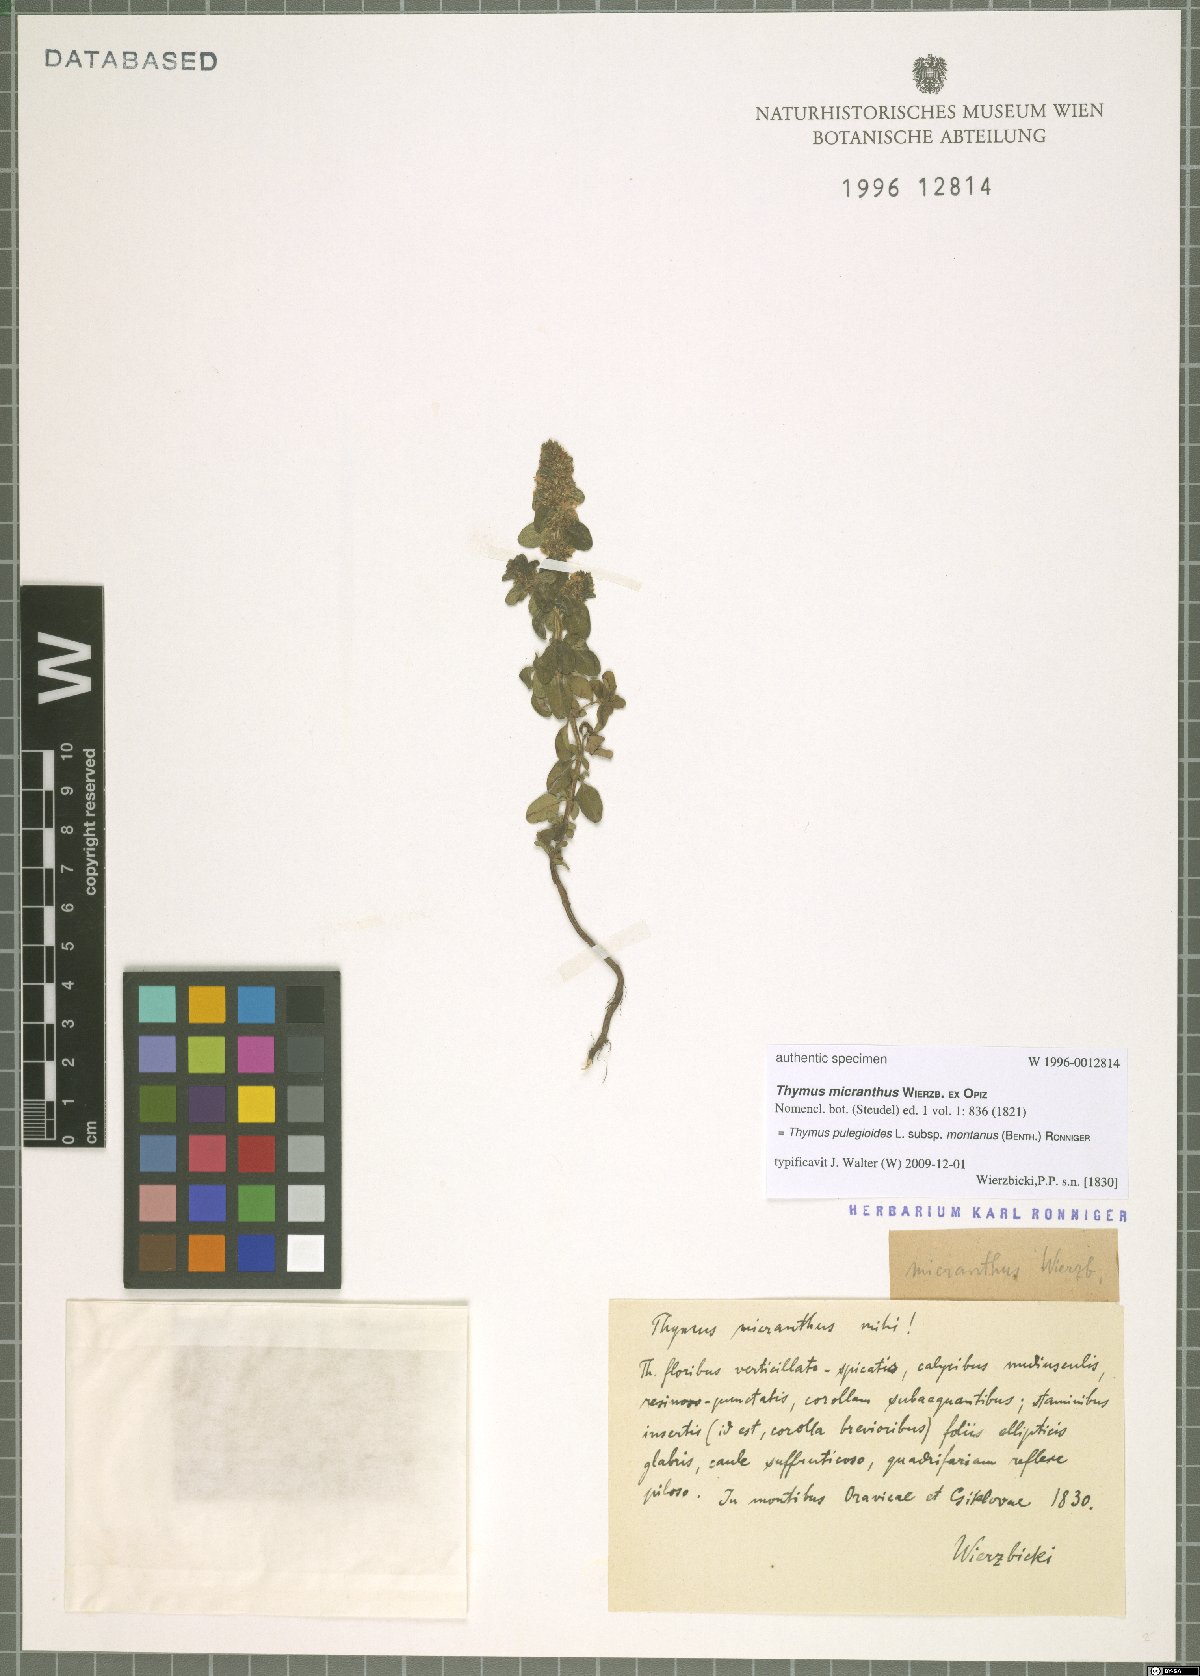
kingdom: Plantae
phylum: Tracheophyta
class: Magnoliopsida
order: Lamiales
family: Lamiaceae
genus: Thymus
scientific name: Thymus pulegioides
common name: Large thyme
